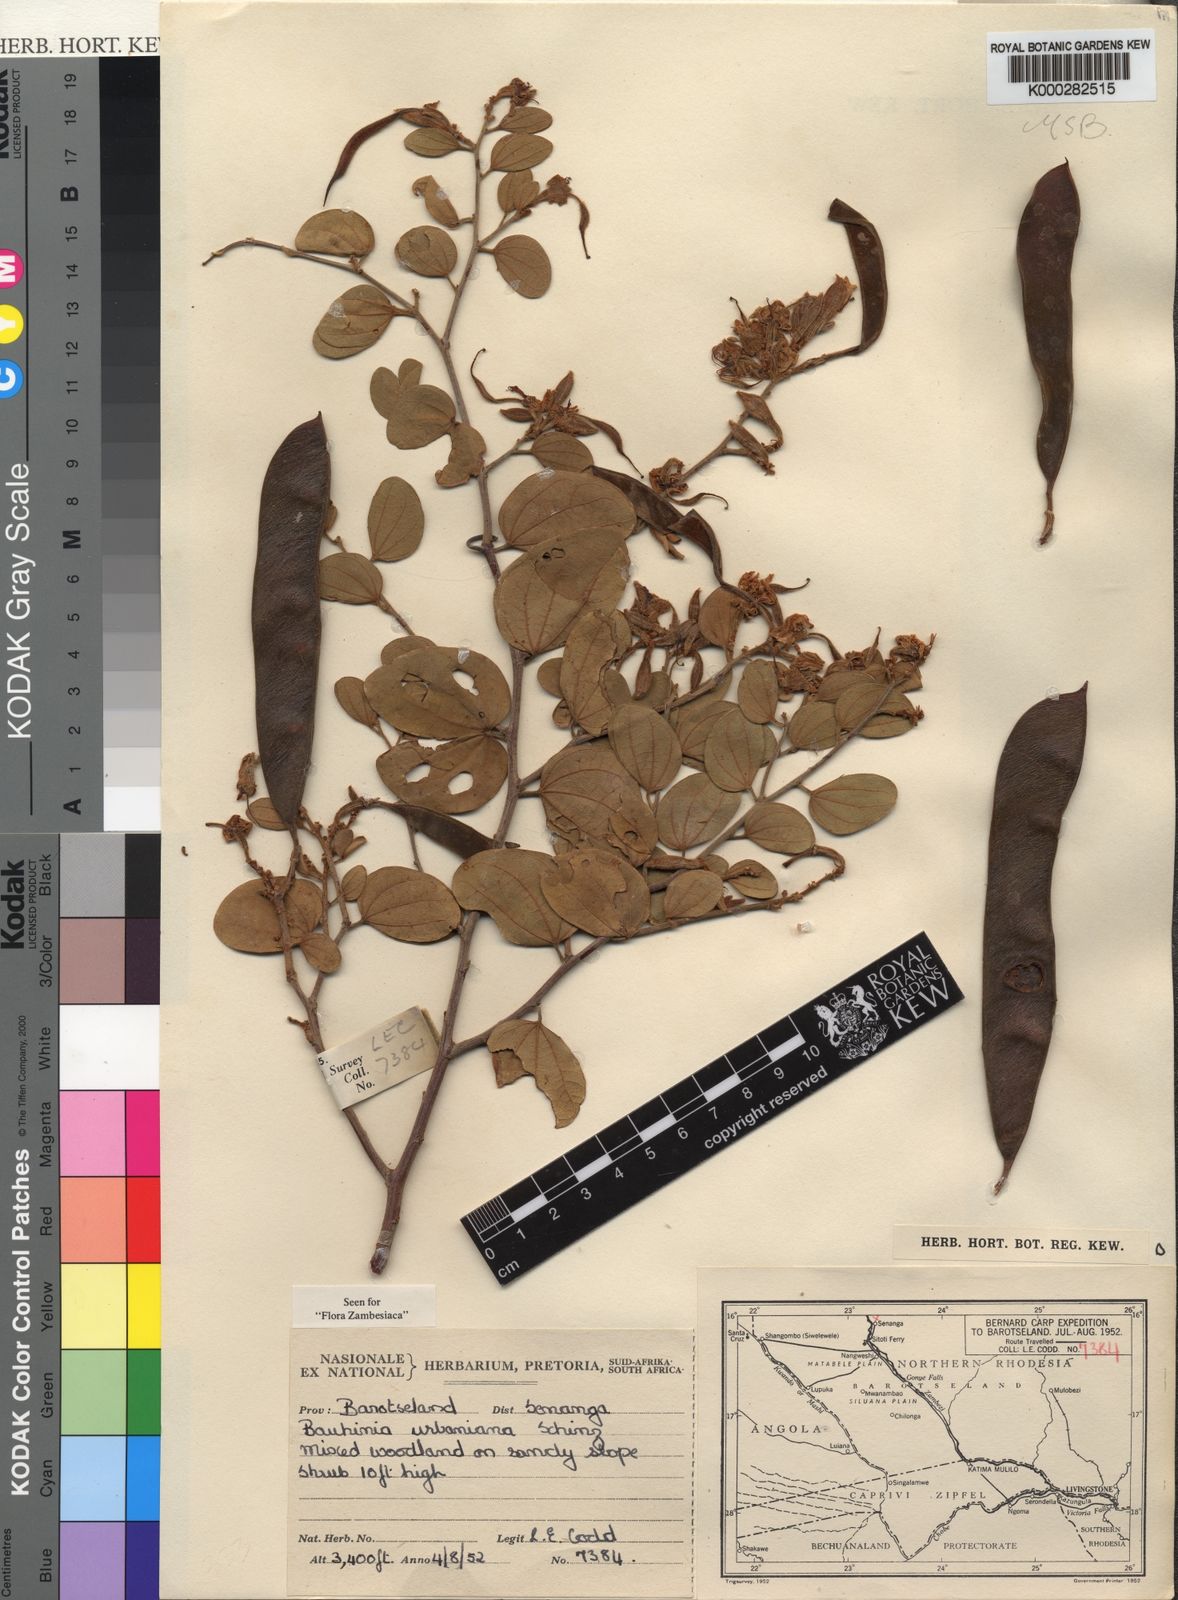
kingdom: Plantae
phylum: Tracheophyta
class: Magnoliopsida
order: Fabales
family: Fabaceae
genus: Bauhinia
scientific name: Bauhinia urbaniana
